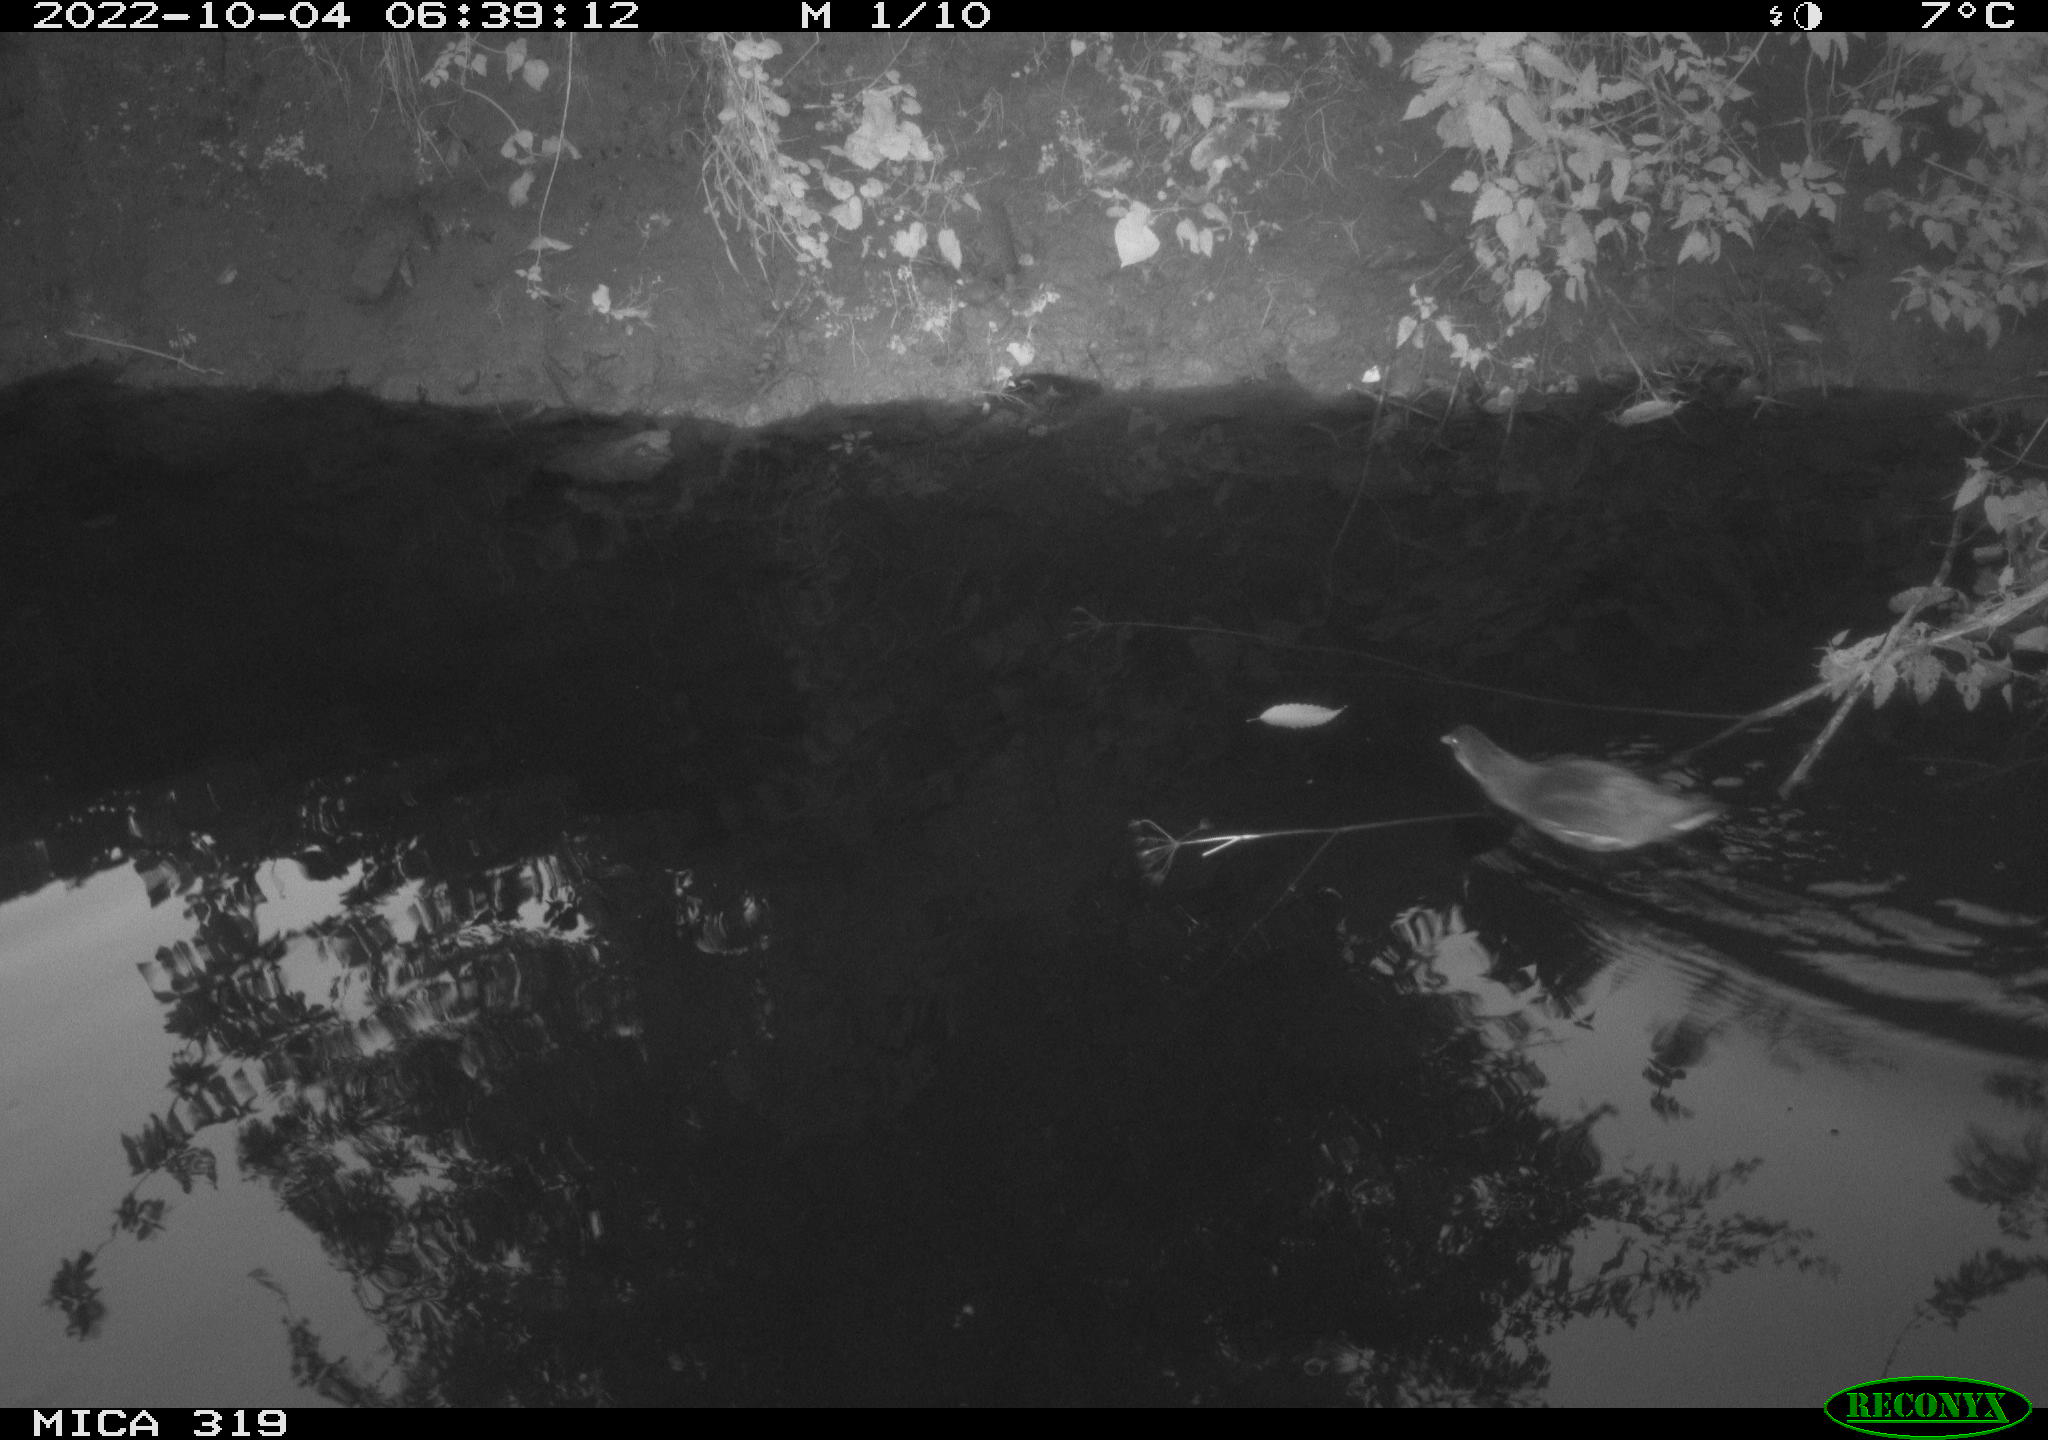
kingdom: Animalia
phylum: Chordata
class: Aves
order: Gruiformes
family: Rallidae
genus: Gallinula
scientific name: Gallinula chloropus
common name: Common moorhen
